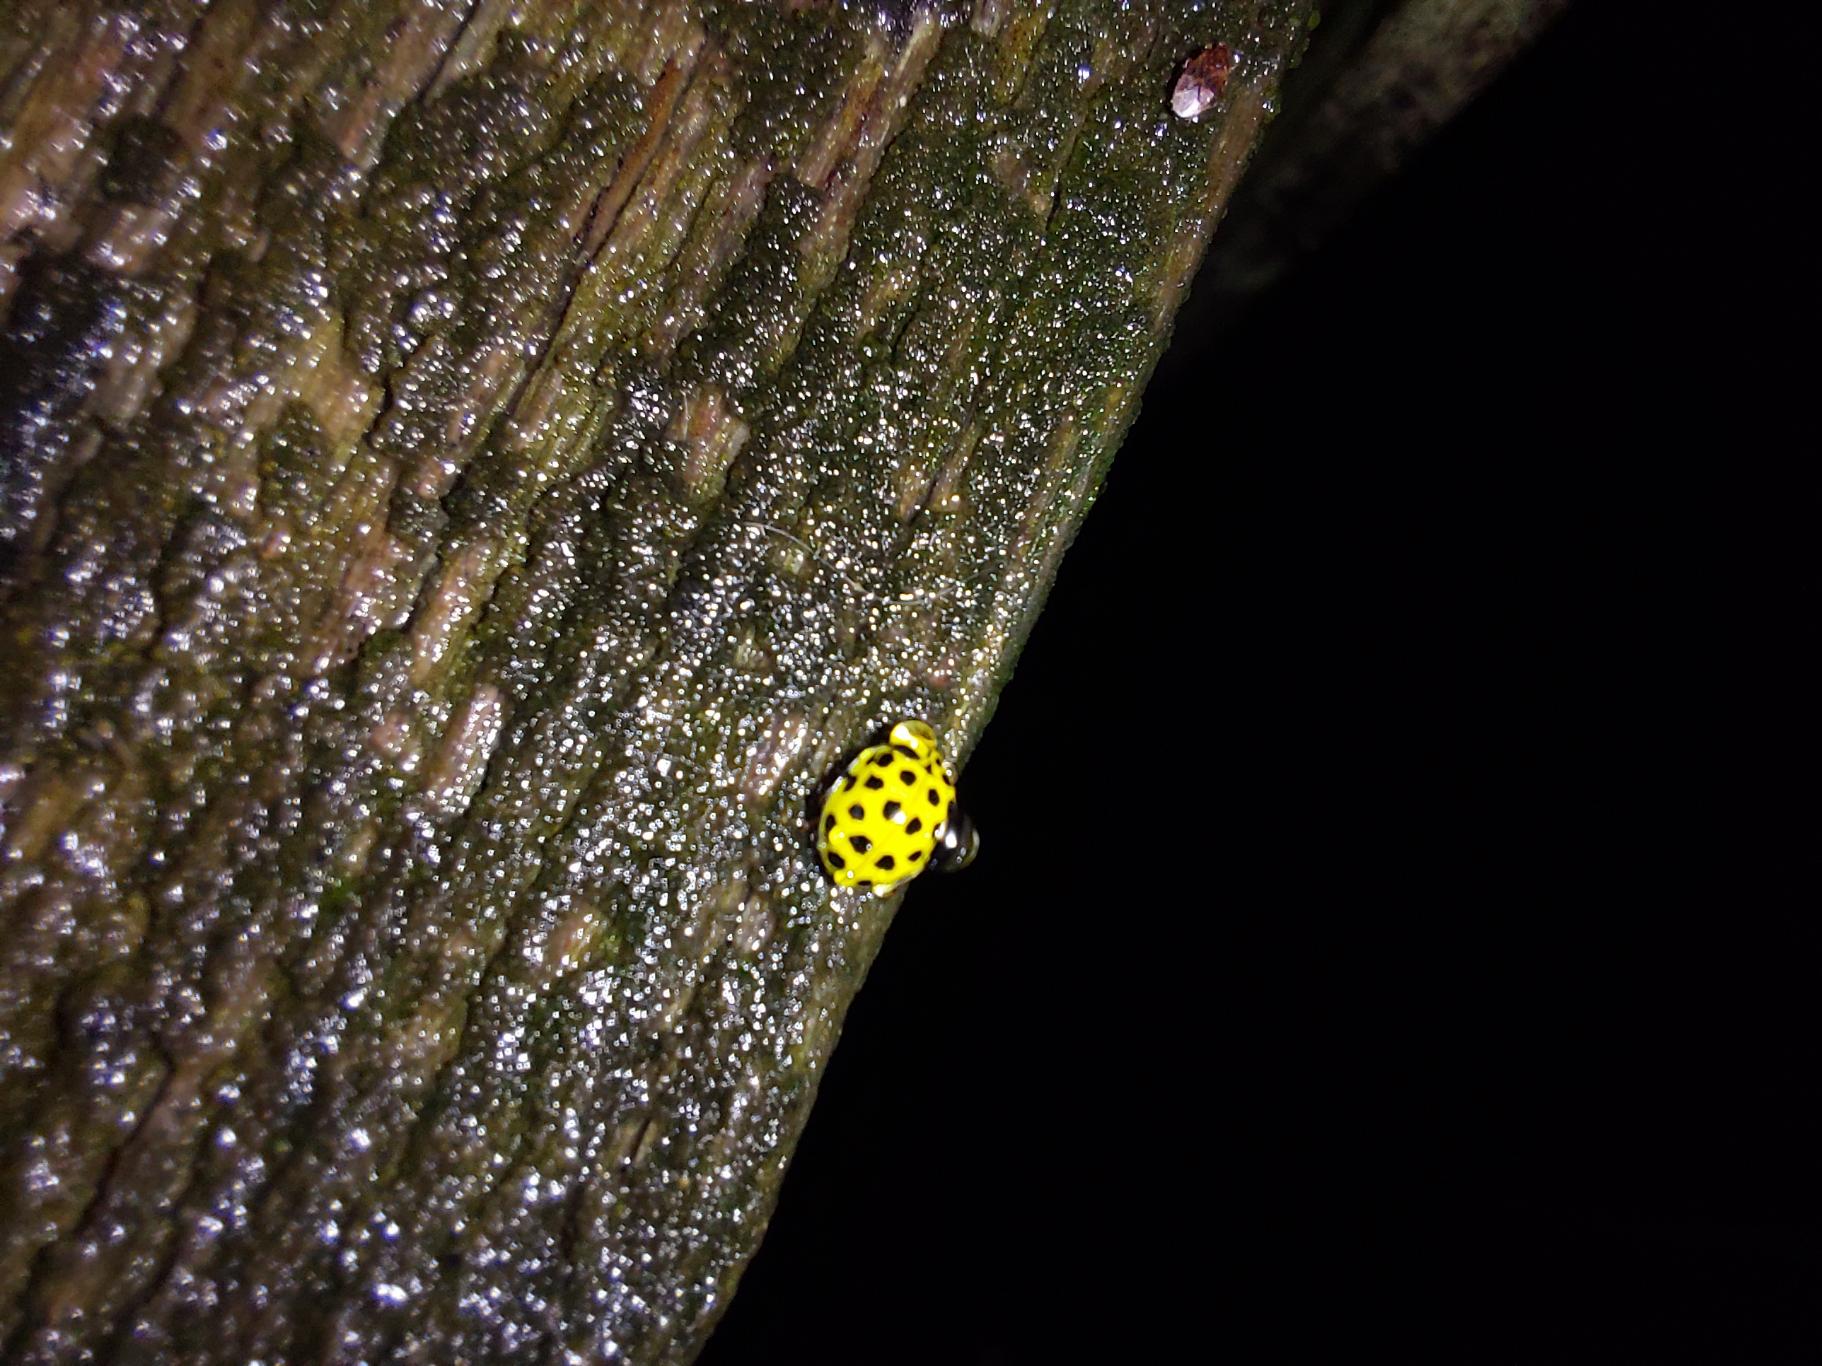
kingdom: Animalia
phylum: Arthropoda
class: Insecta
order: Coleoptera
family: Coccinellidae
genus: Psyllobora
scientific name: Psyllobora vigintiduopunctata
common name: Toogtyveplettet mariehøne
